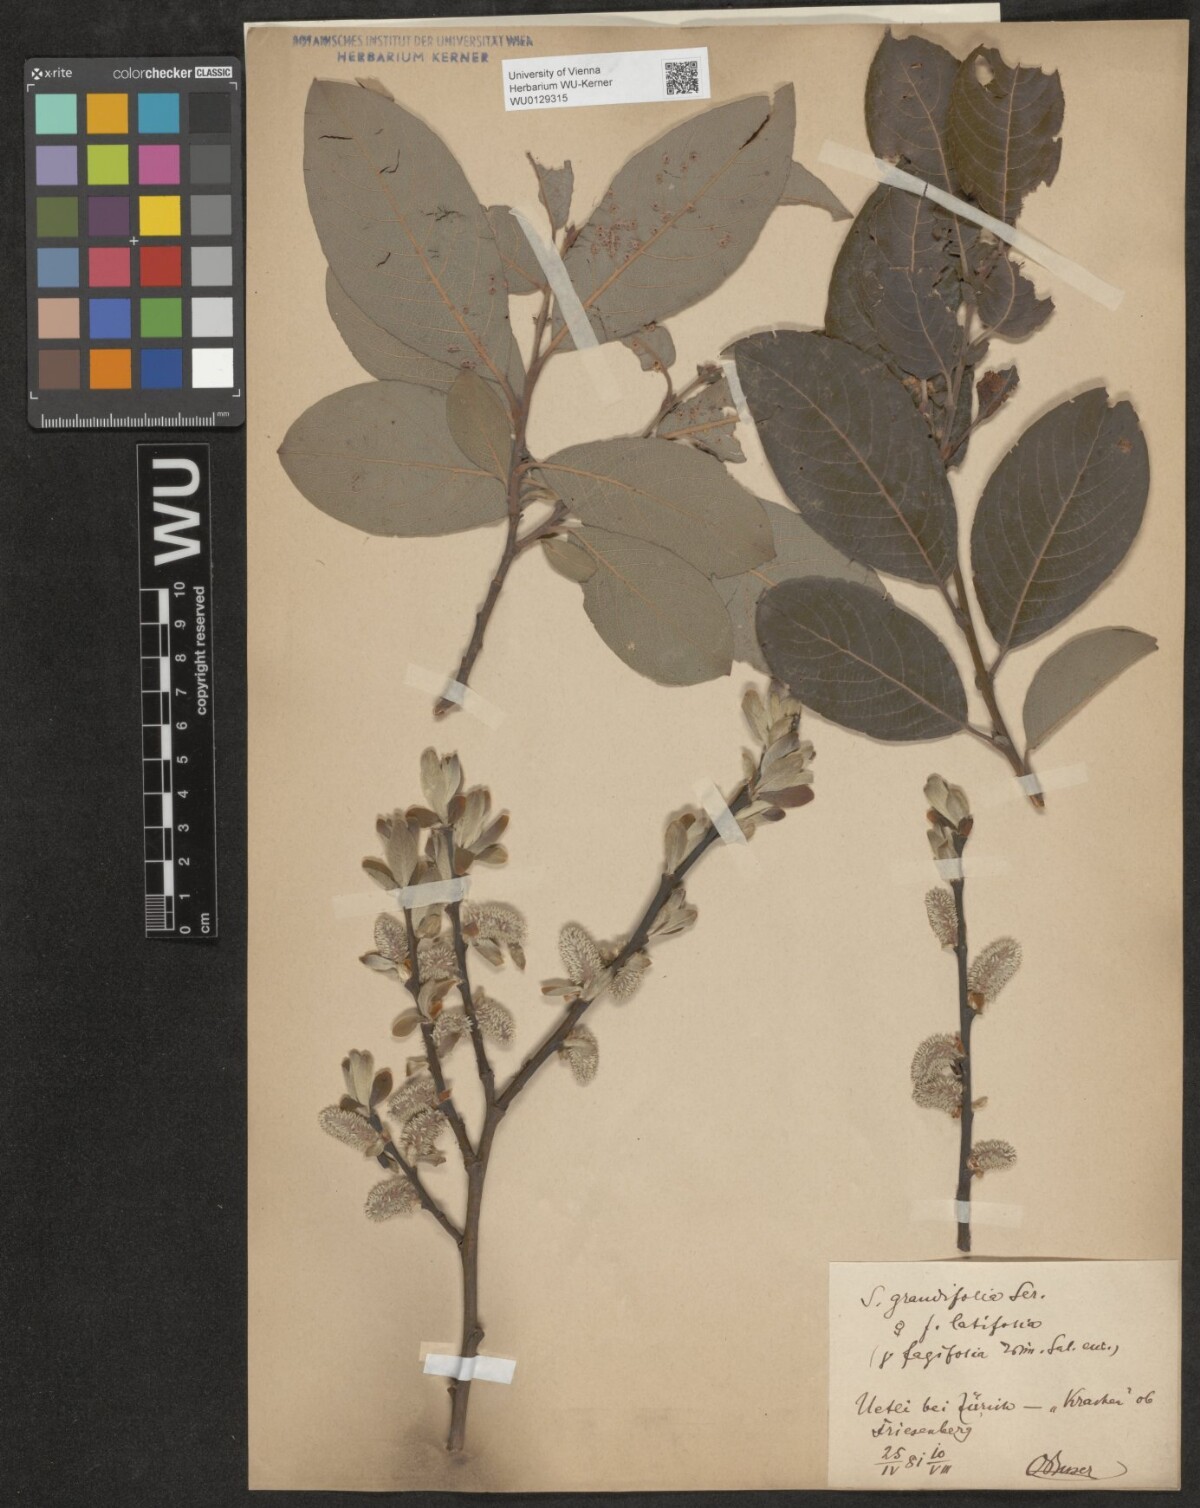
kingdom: Plantae
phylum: Tracheophyta
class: Magnoliopsida
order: Malpighiales
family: Salicaceae
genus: Salix
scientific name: Salix appendiculata
